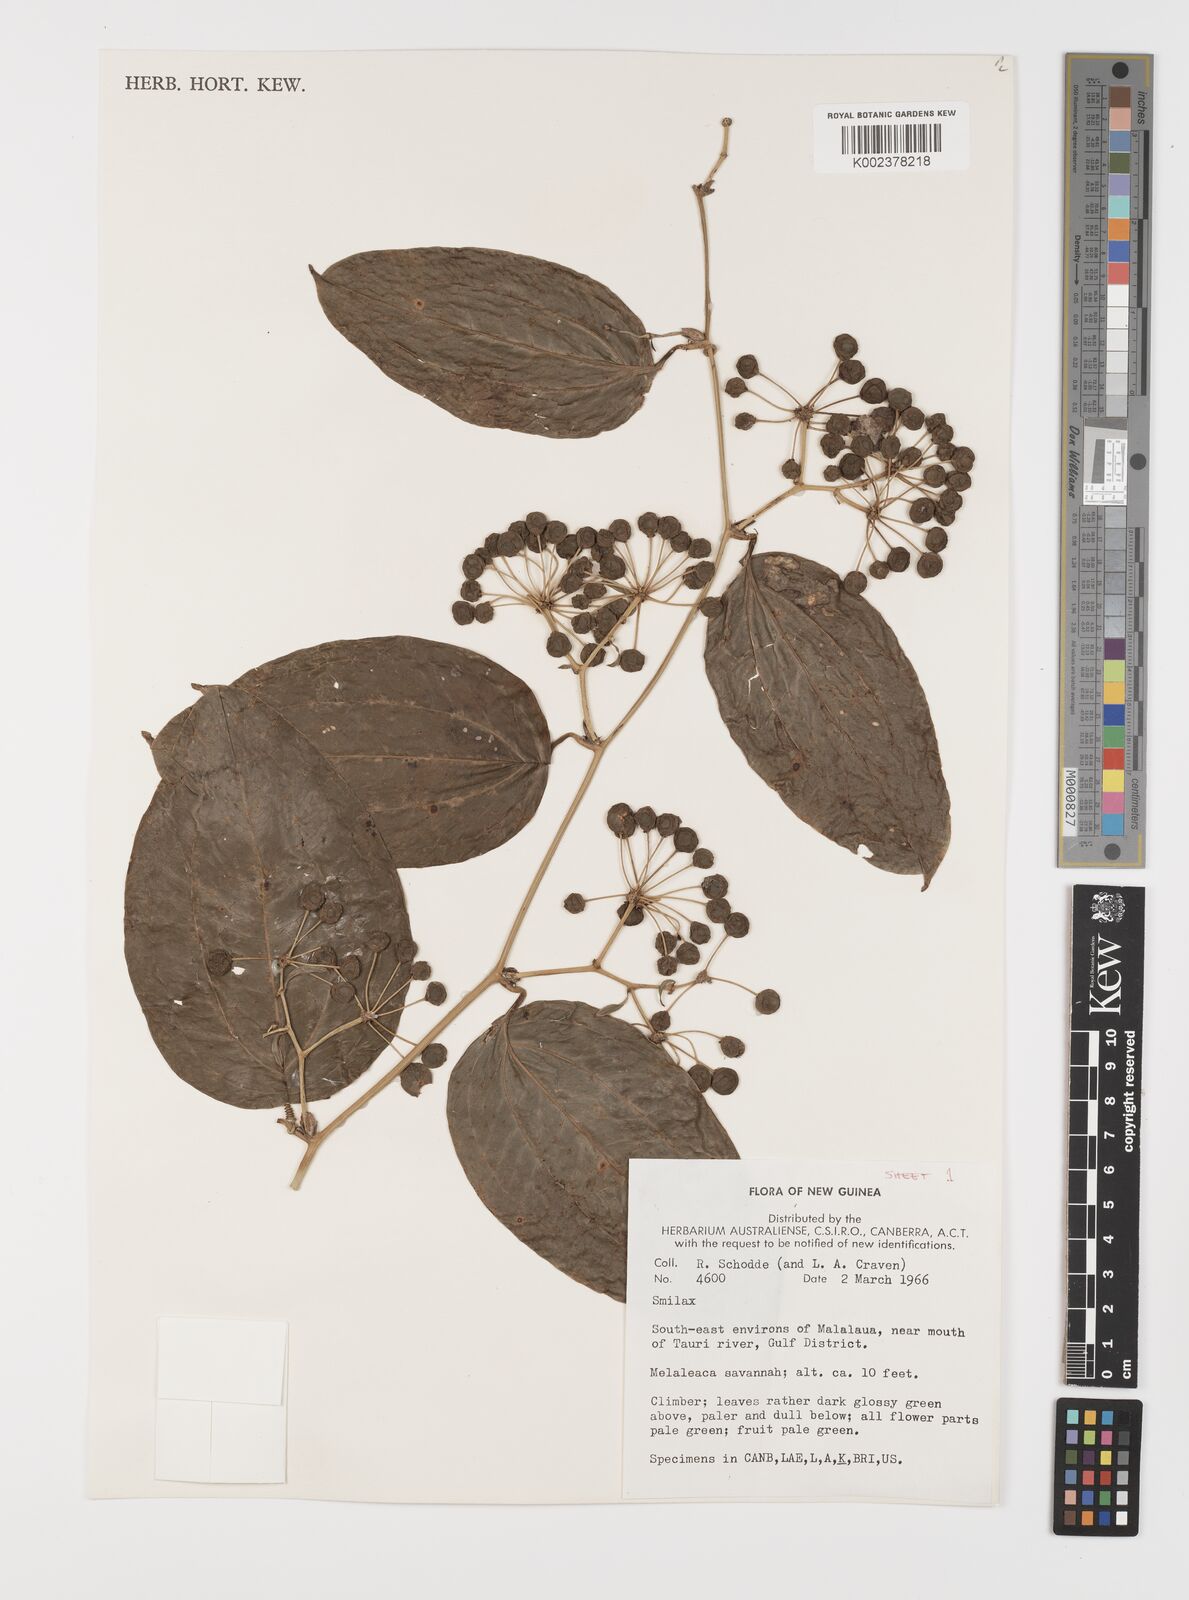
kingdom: Plantae
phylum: Tracheophyta
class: Liliopsida
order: Liliales
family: Smilacaceae
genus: Smilax
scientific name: Smilax
